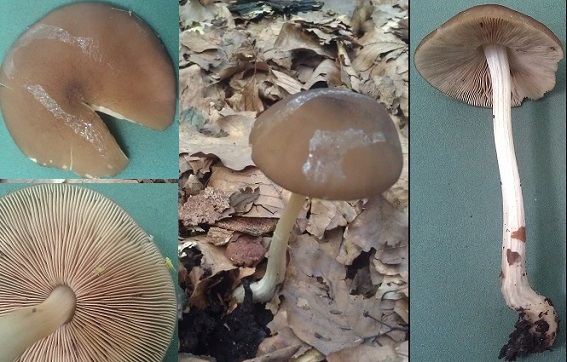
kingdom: Fungi
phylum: Basidiomycota
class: Agaricomycetes
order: Agaricales
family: Pluteaceae
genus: Pluteus
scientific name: Pluteus phlebophorus
